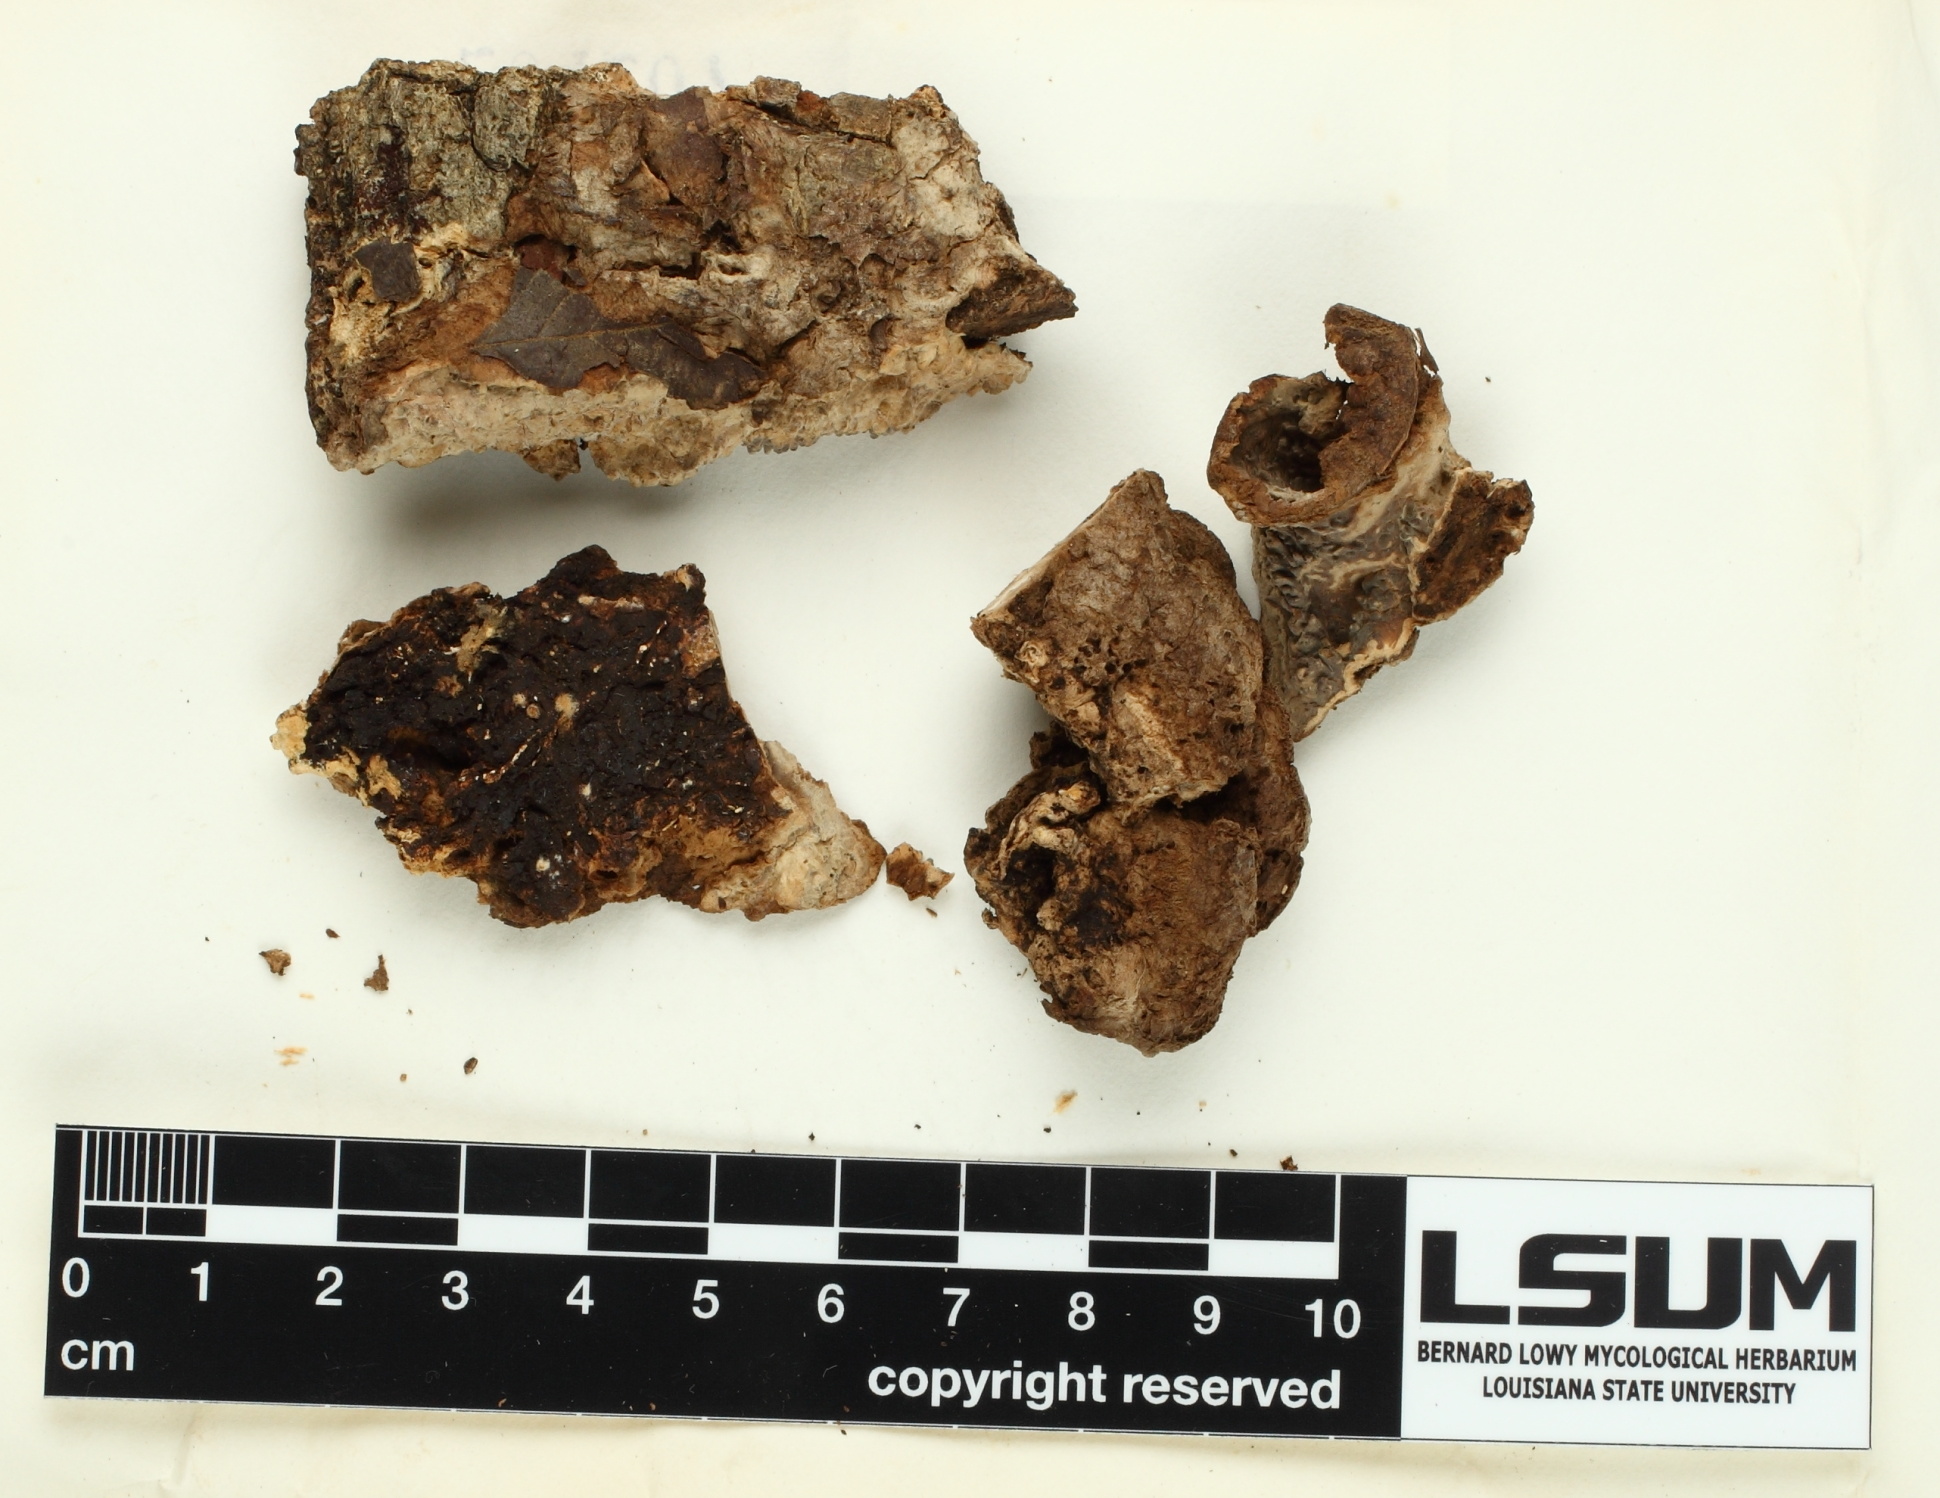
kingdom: Fungi
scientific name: Fungi
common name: Fungi
